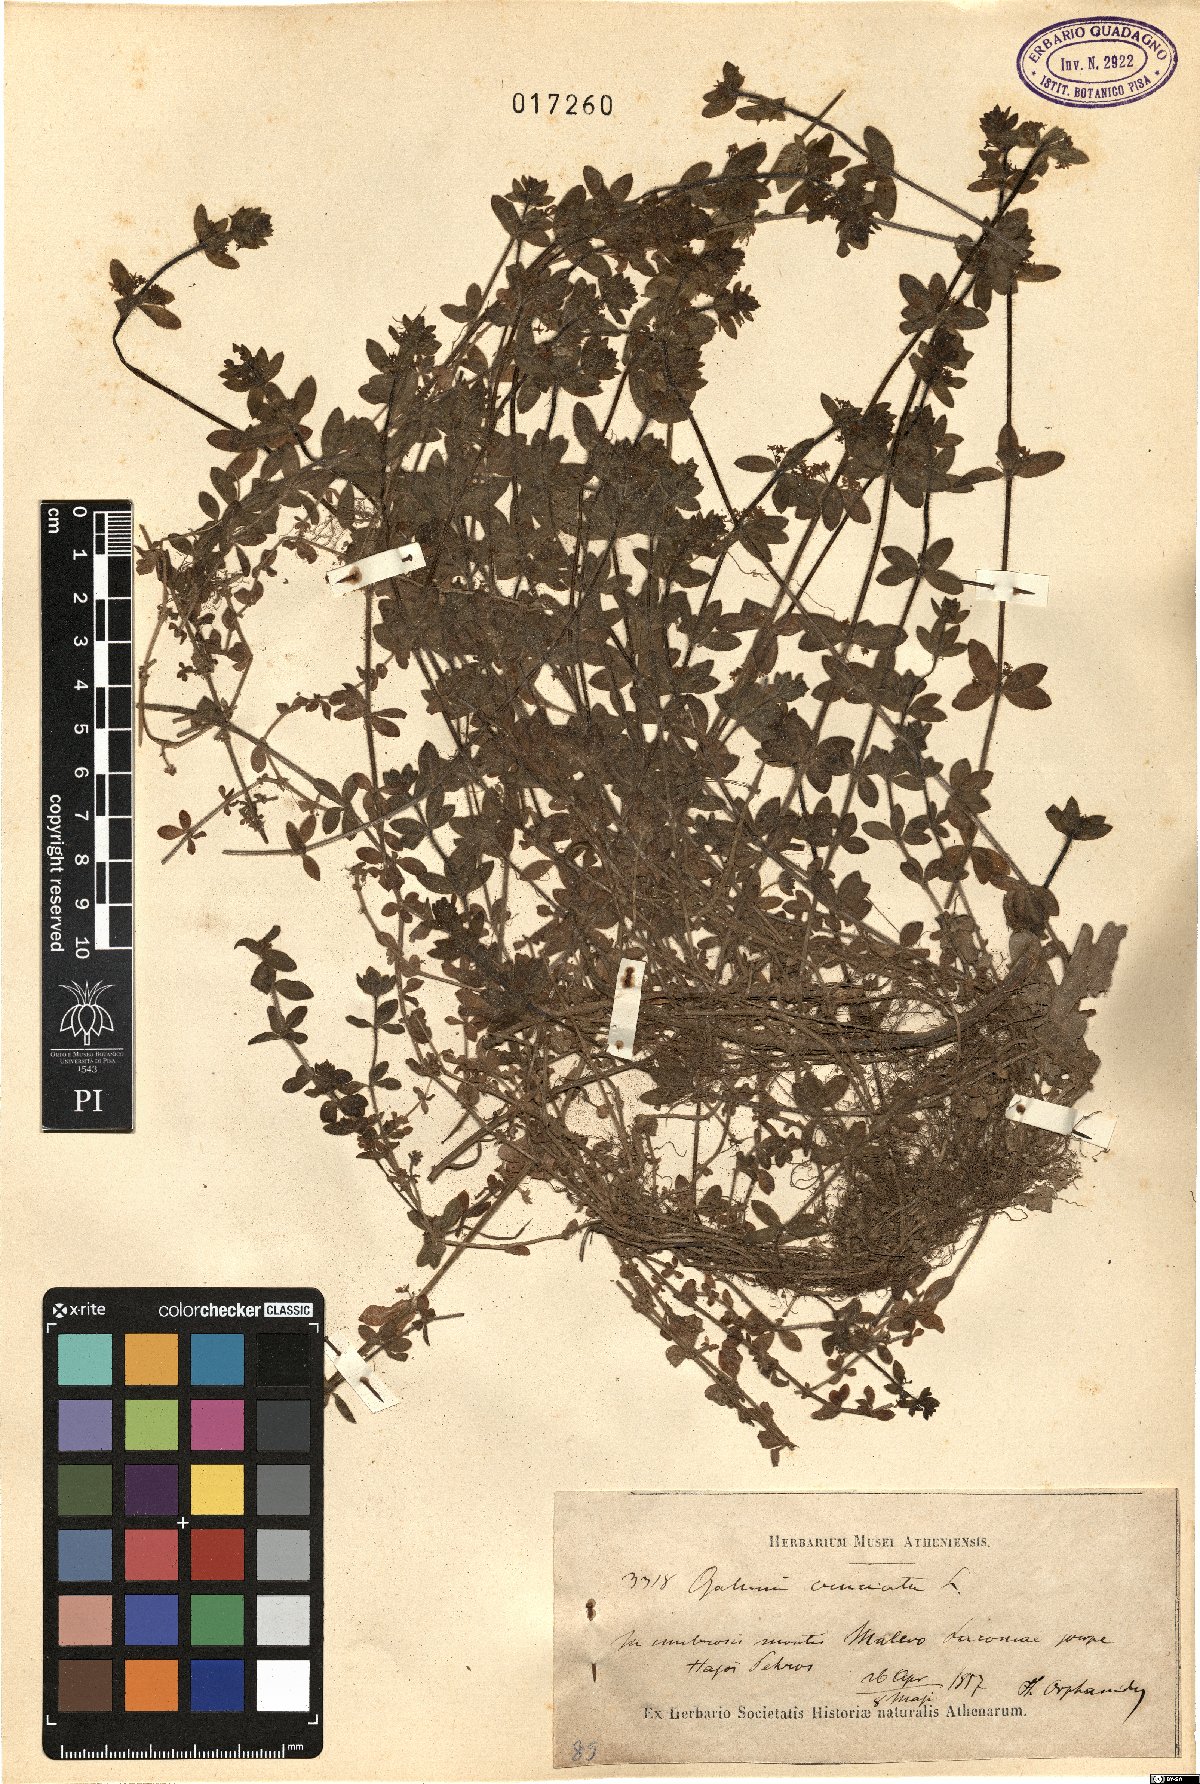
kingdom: Plantae
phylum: Tracheophyta
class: Magnoliopsida
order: Gentianales
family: Rubiaceae
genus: Cruciata
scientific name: Cruciata laevipes
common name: Crosswort
